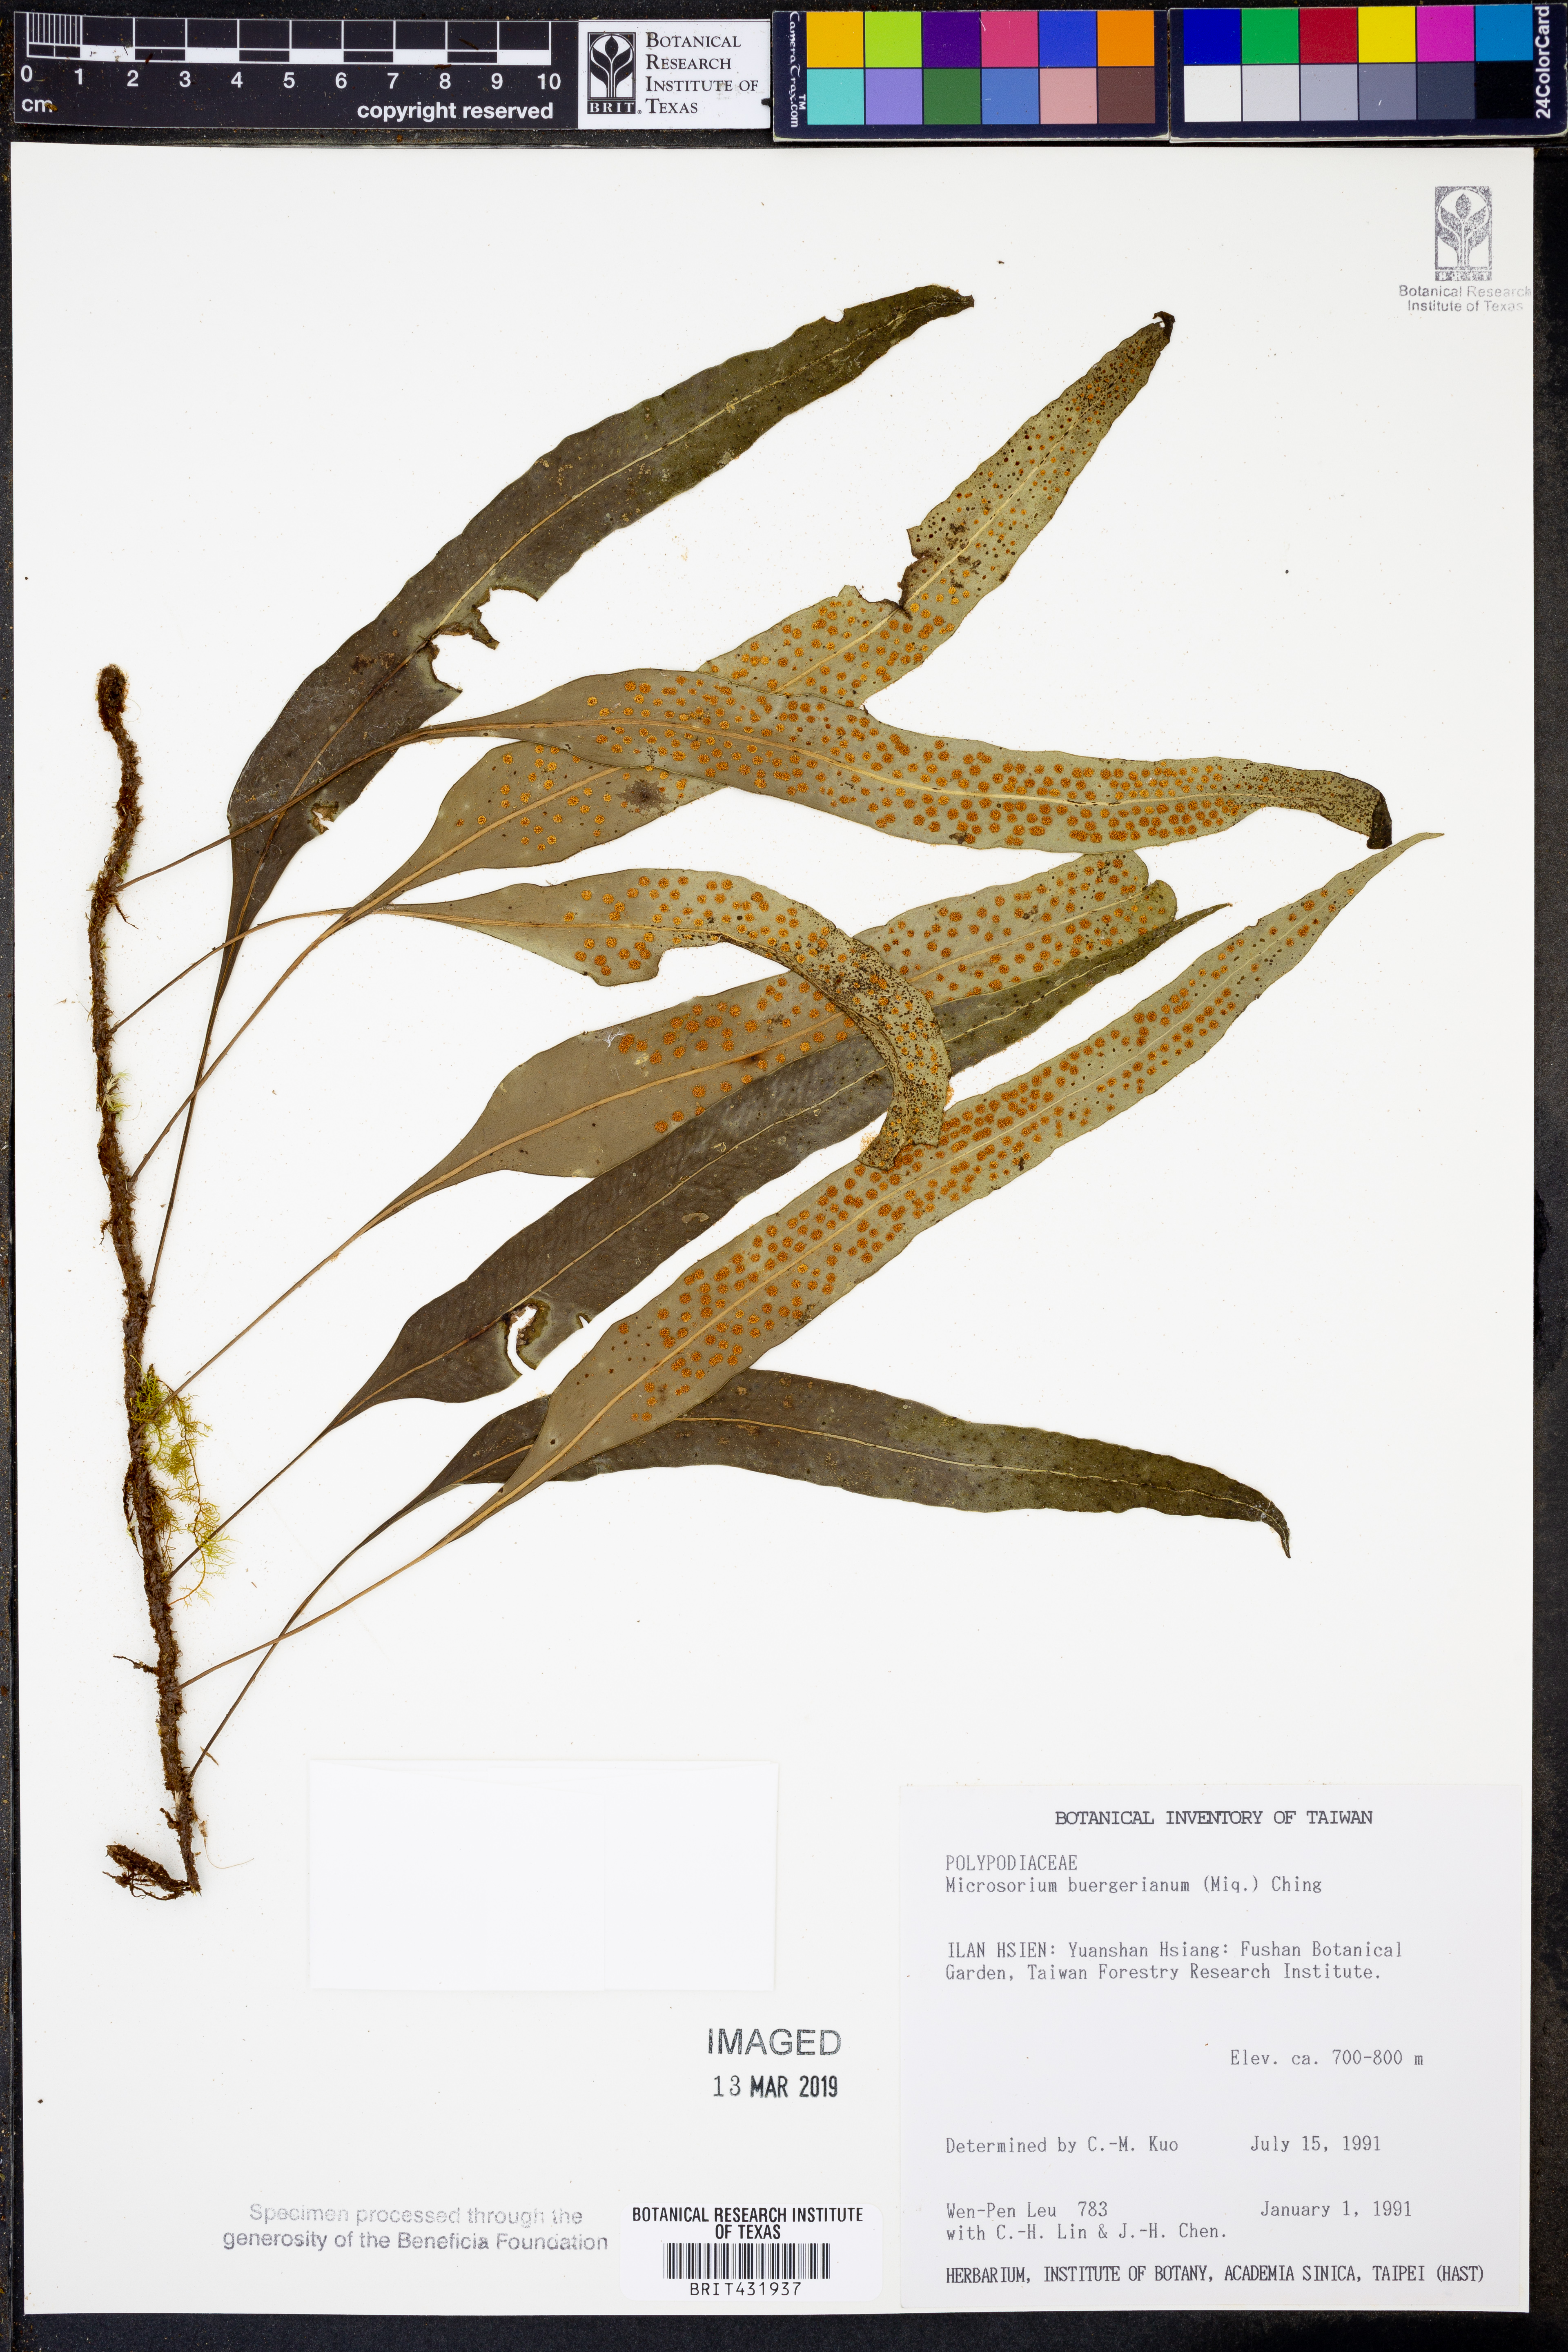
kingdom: Plantae
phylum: Tracheophyta
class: Polypodiopsida
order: Polypodiales
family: Polypodiaceae
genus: Lepisorus
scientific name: Lepisorus buergerianus
